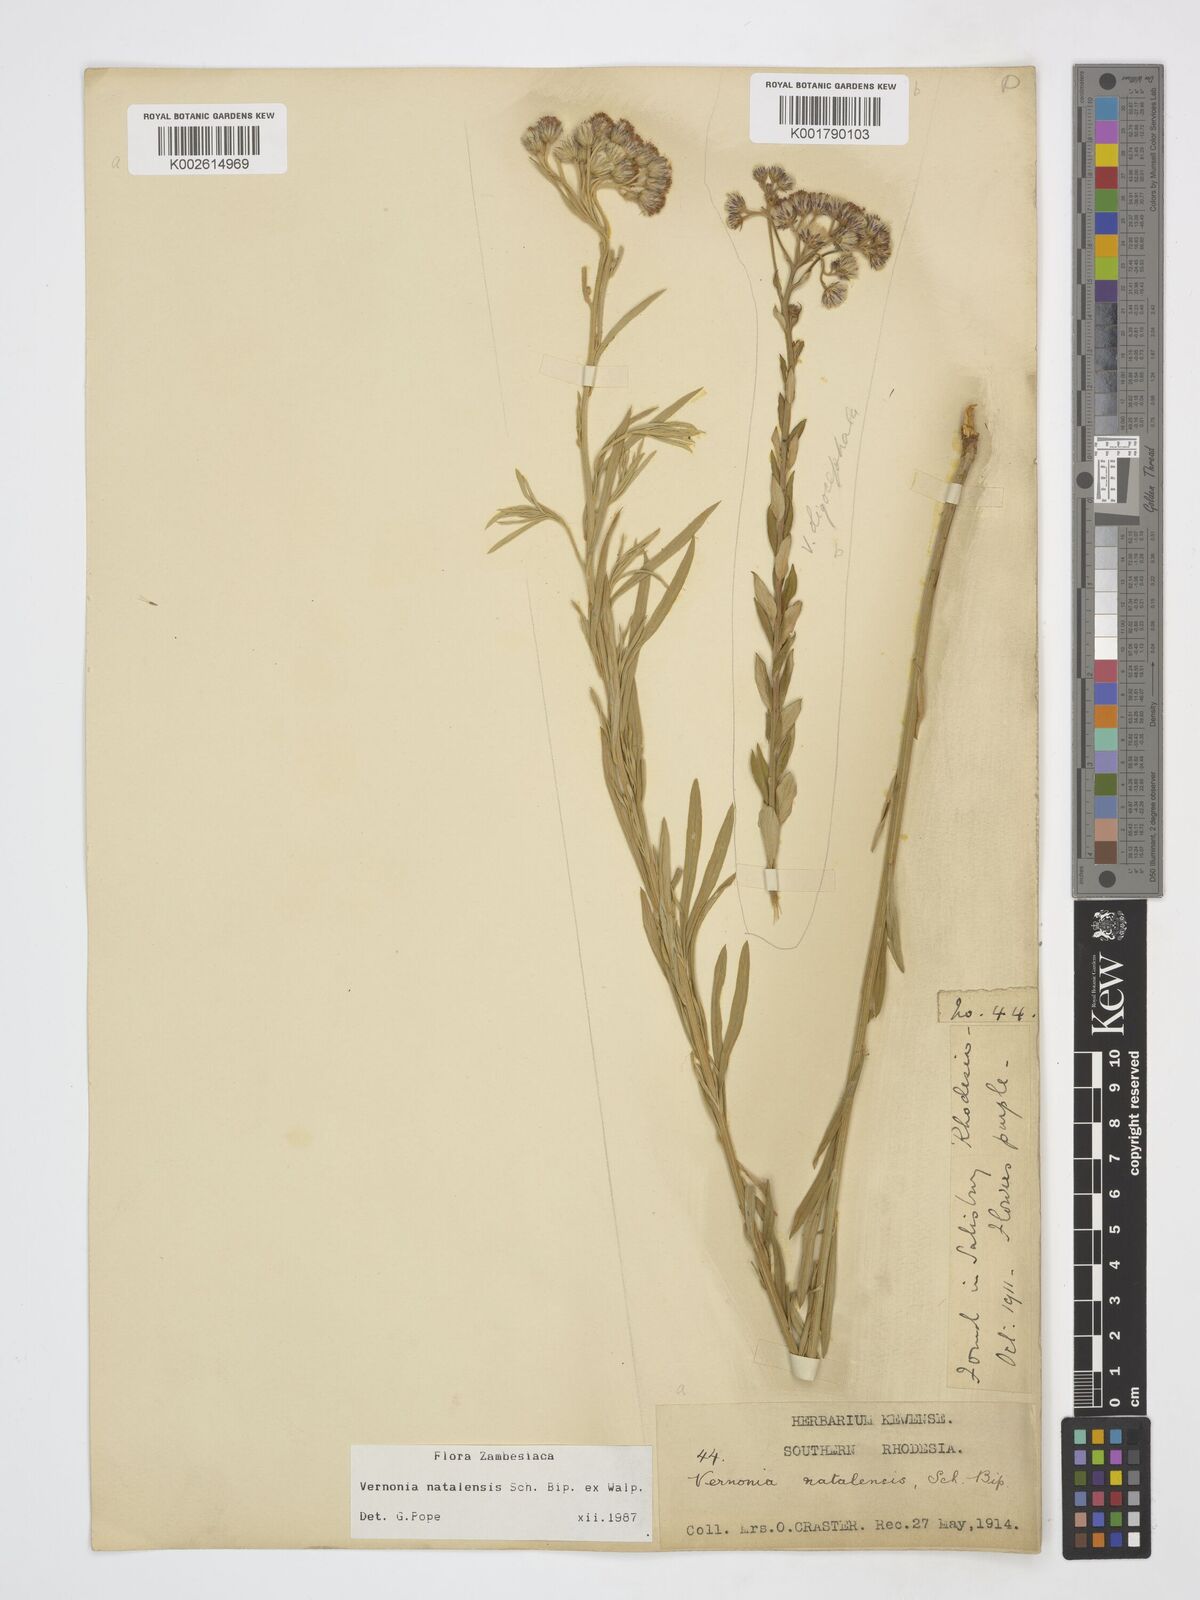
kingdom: Plantae
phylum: Tracheophyta
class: Magnoliopsida
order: Asterales
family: Asteraceae
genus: Hilliardiella
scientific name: Hilliardiella aristata
